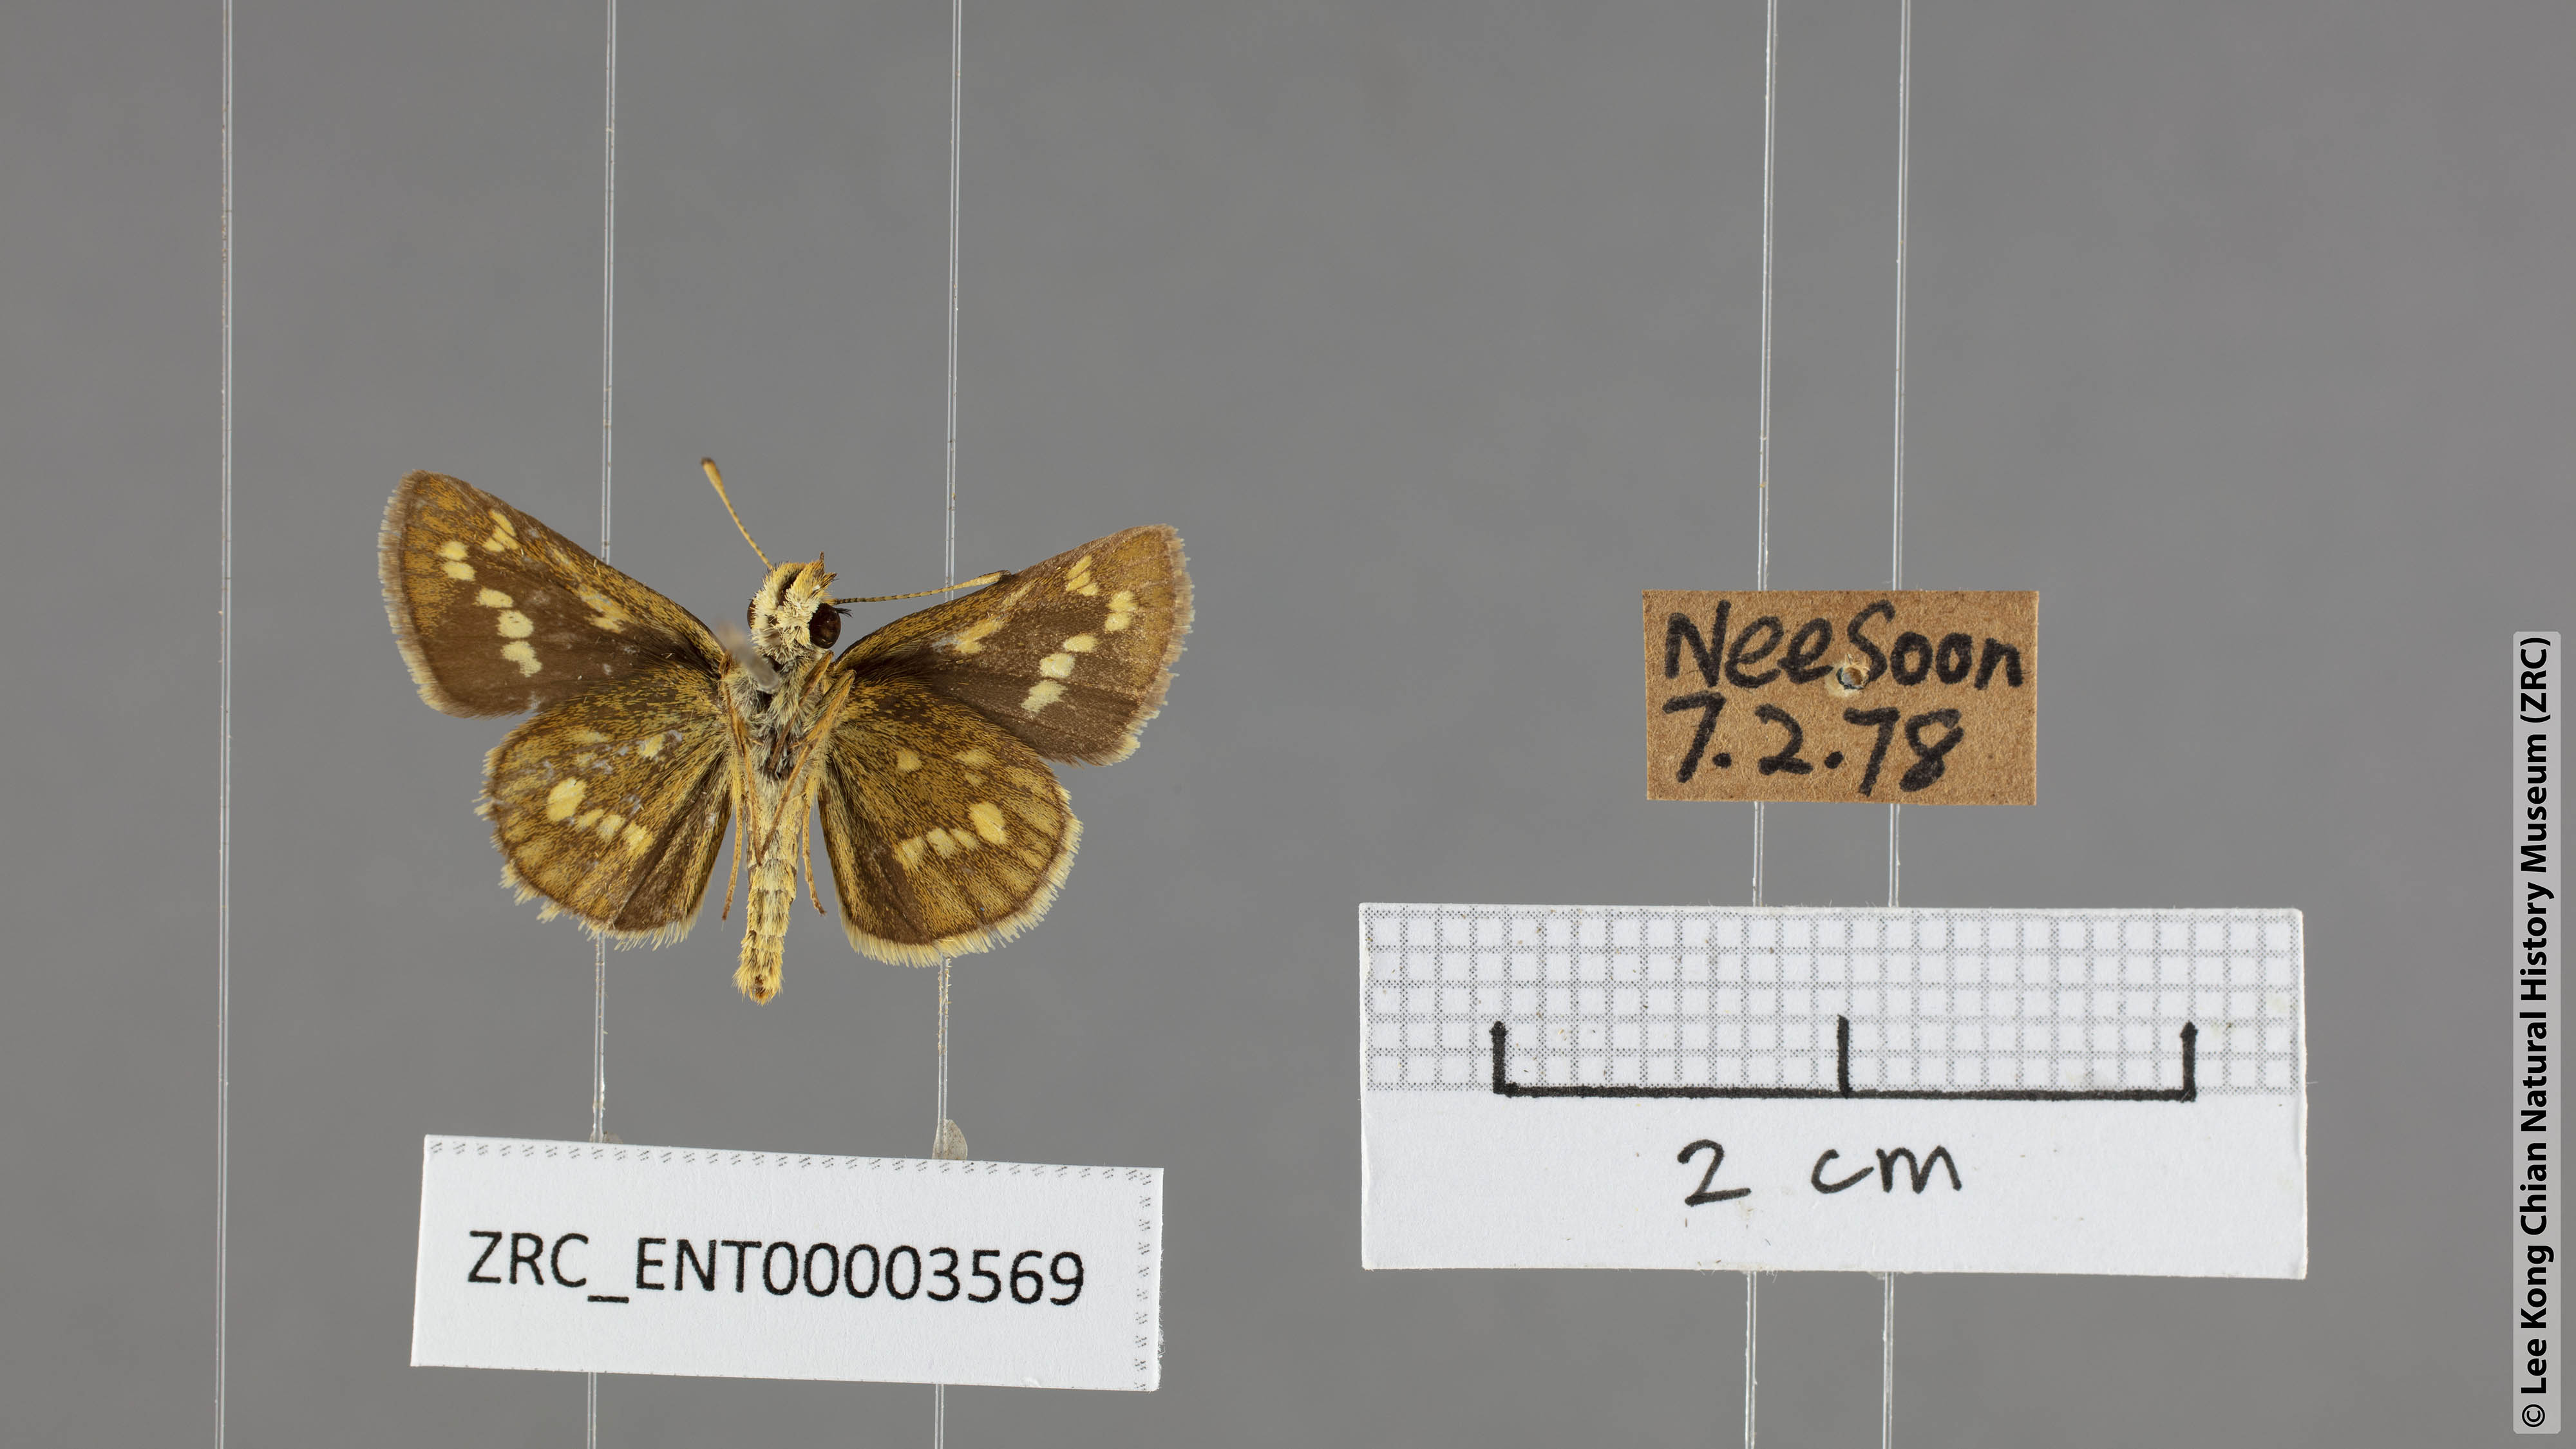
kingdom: Animalia
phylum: Arthropoda
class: Insecta
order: Lepidoptera
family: Hesperiidae
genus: Taractrocera
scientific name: Taractrocera ardonia
